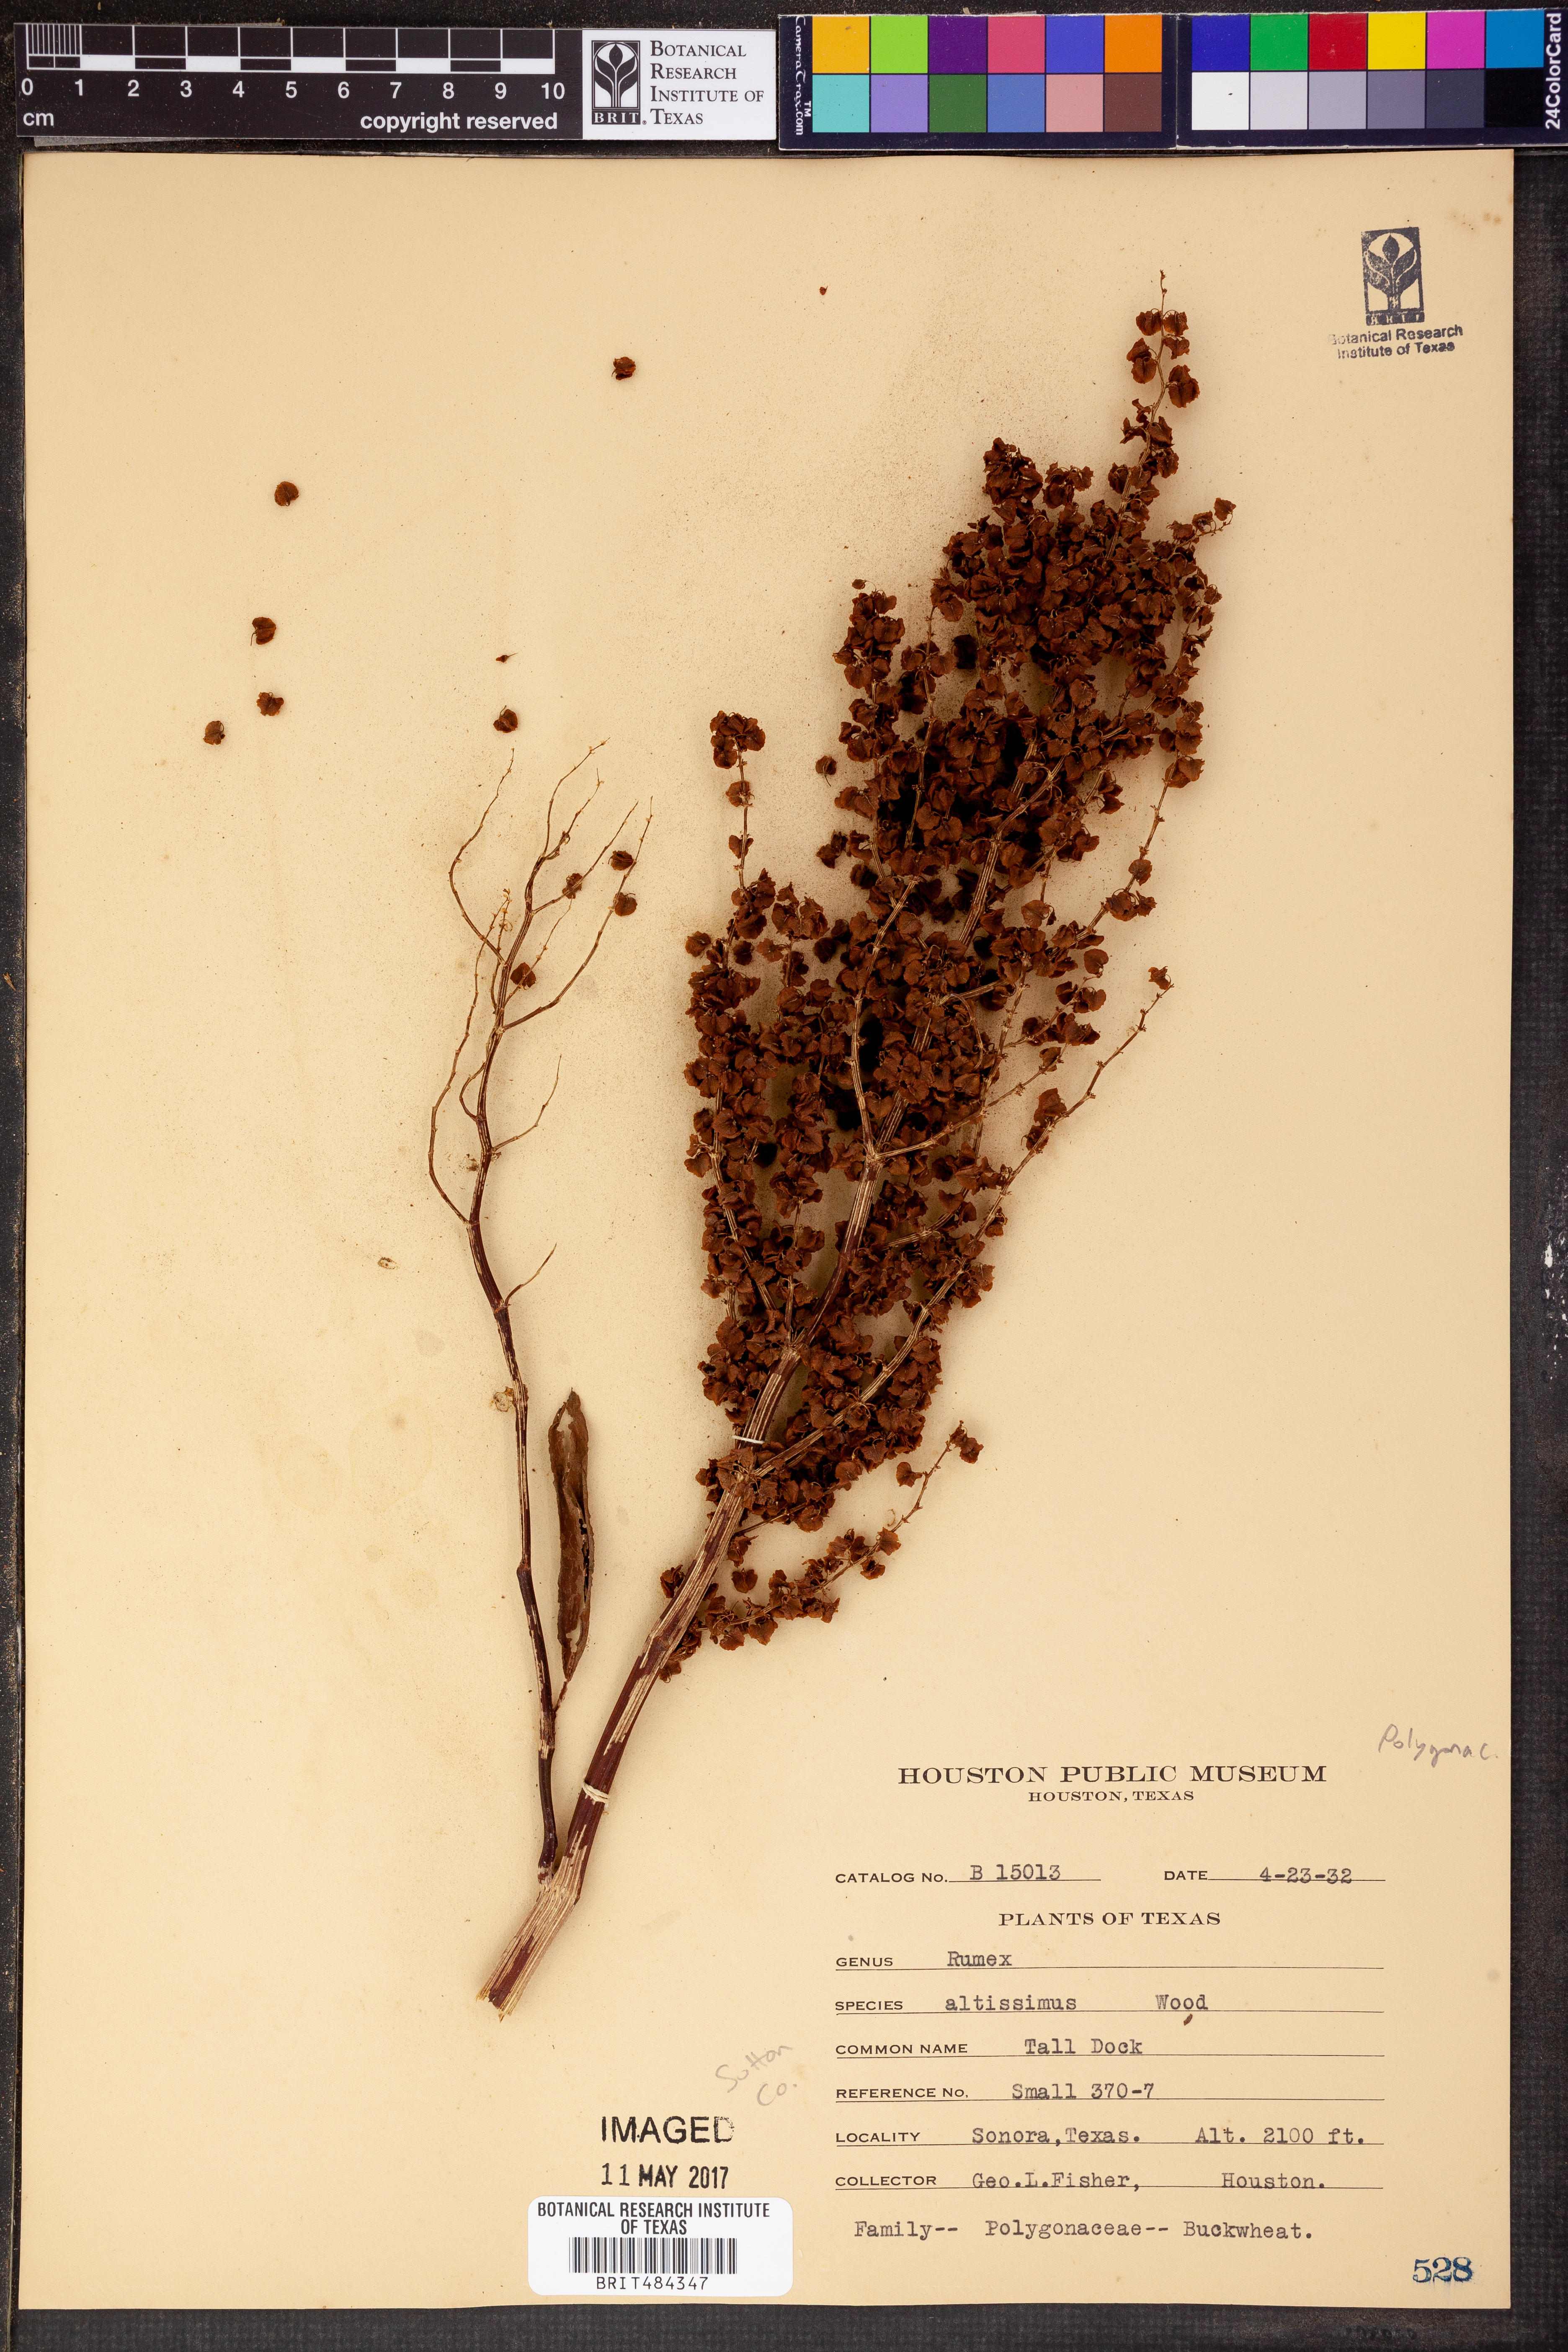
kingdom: Plantae
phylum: Tracheophyta
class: Magnoliopsida
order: Caryophyllales
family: Polygonaceae
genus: Rumex
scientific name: Rumex altissimus
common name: Smooth dock
